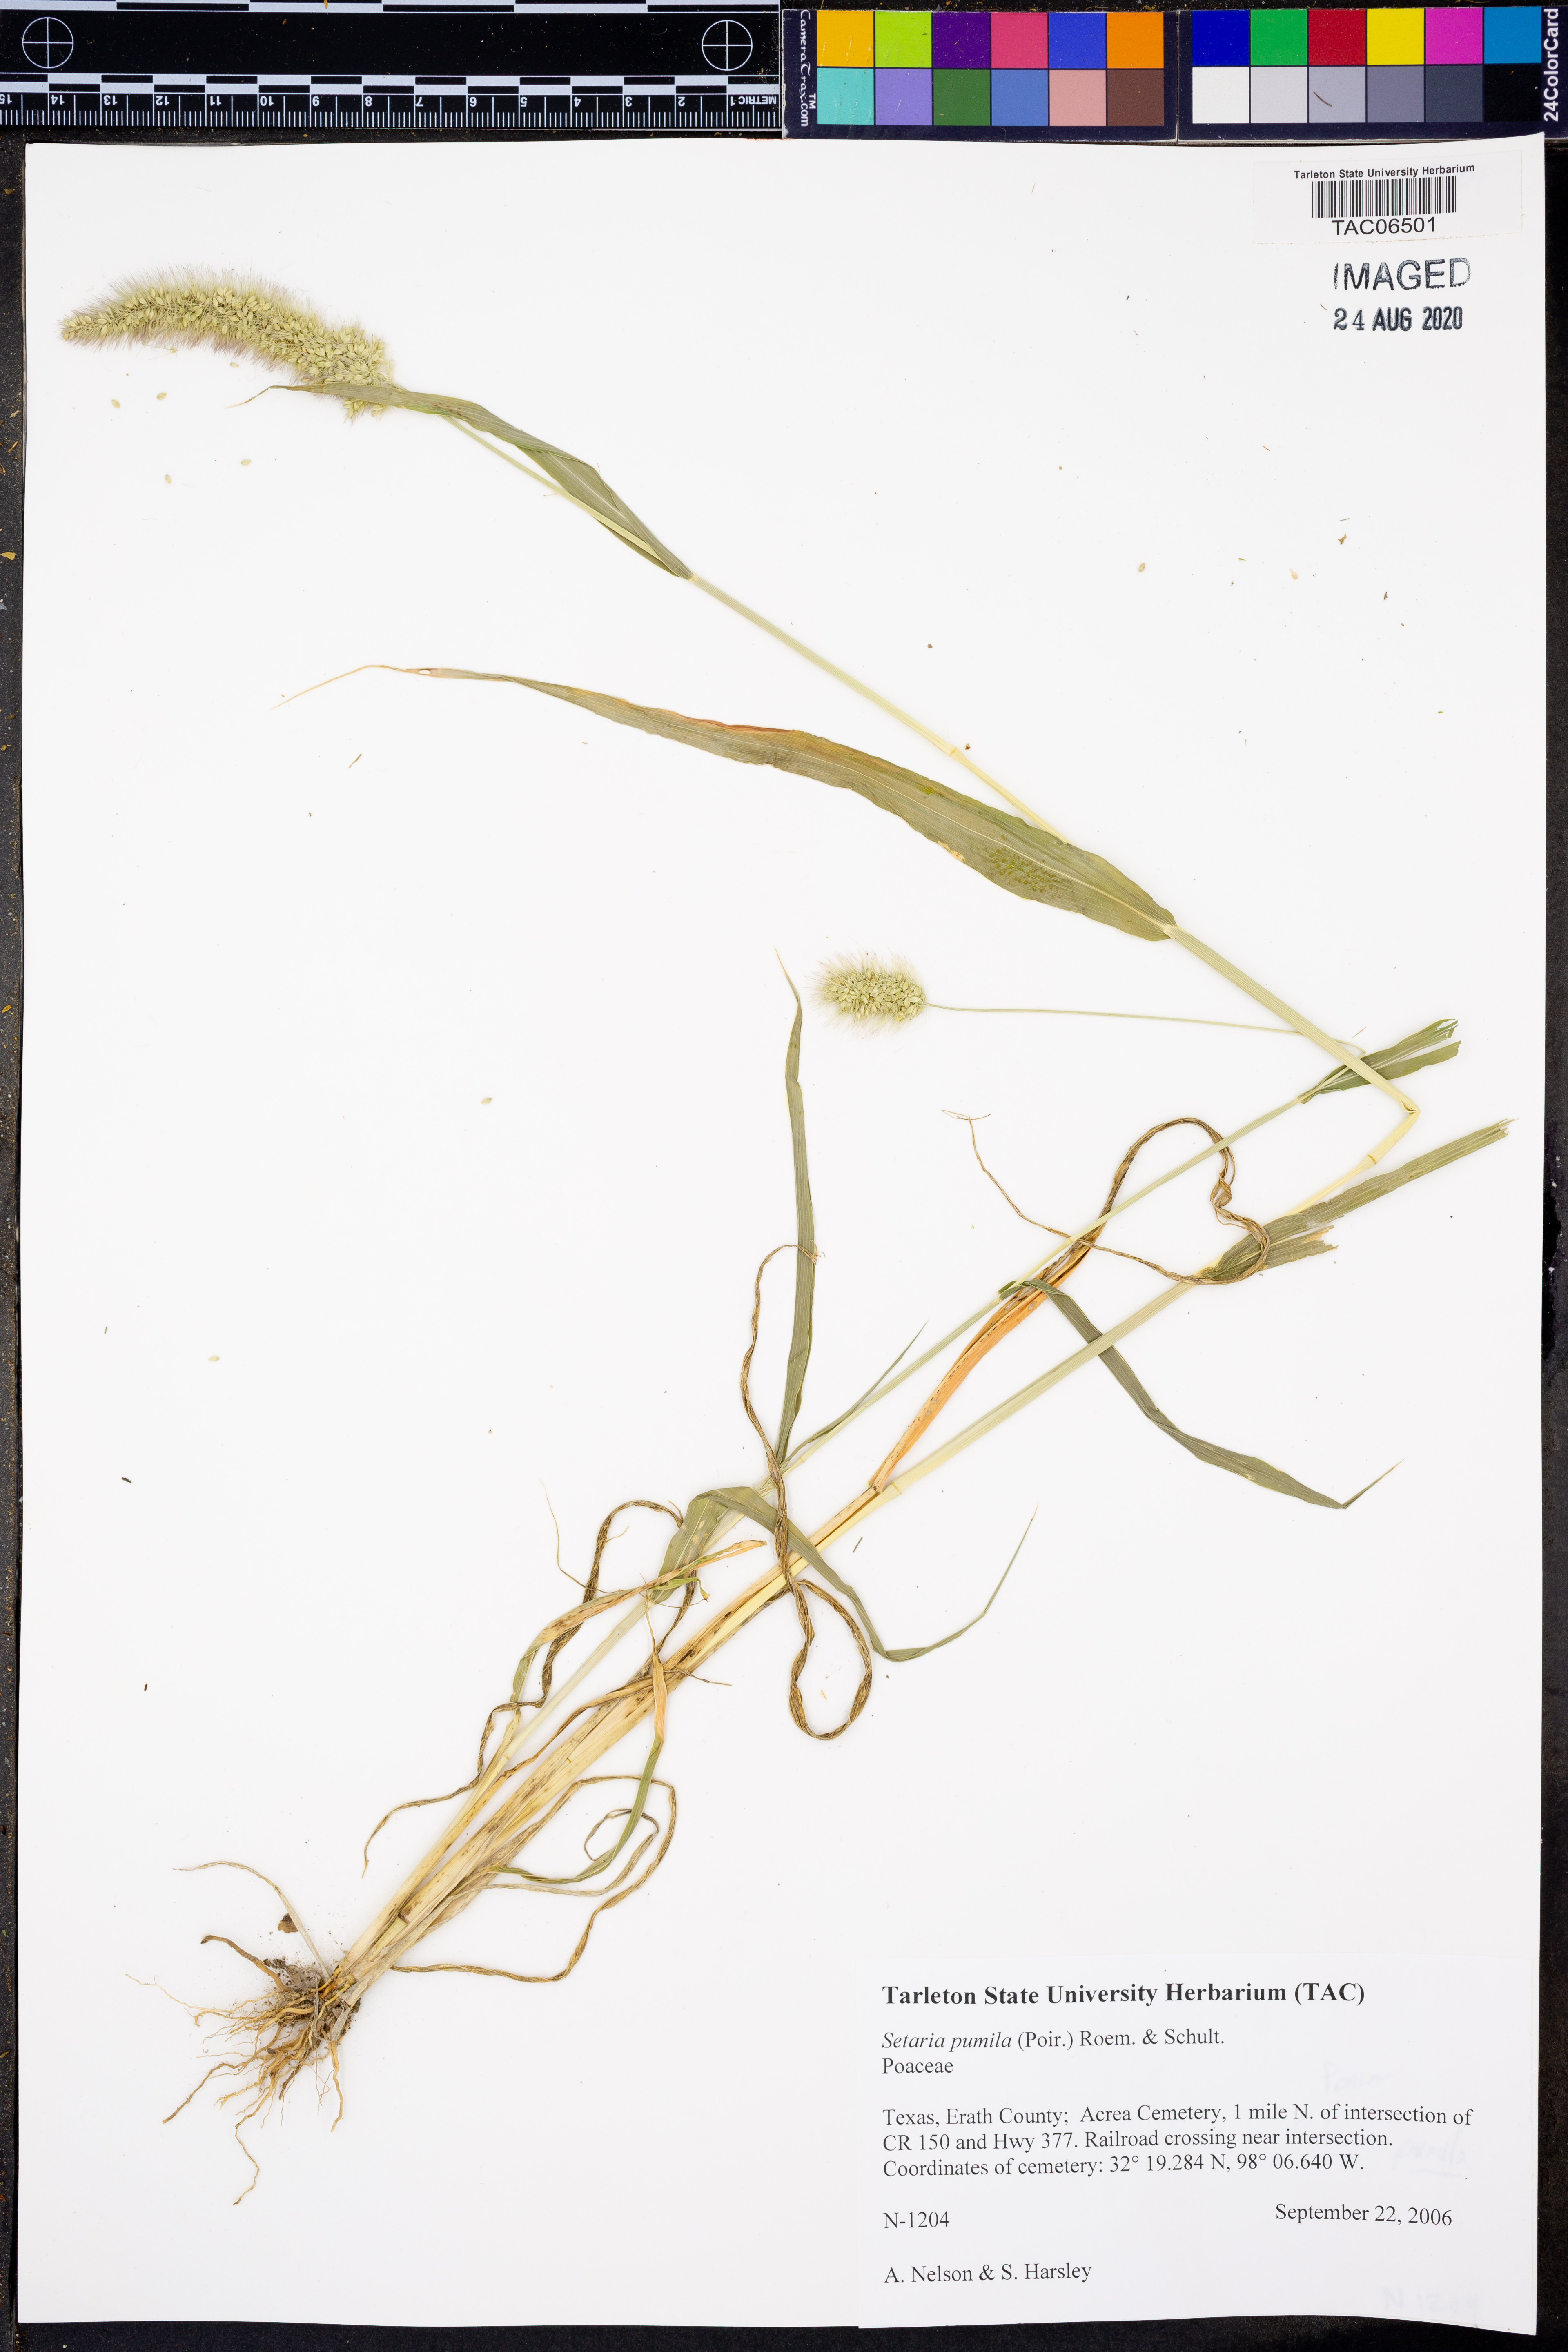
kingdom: Plantae
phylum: Tracheophyta
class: Liliopsida
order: Poales
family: Poaceae
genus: Setaria
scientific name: Setaria pumila
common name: Yellow bristle-grass
